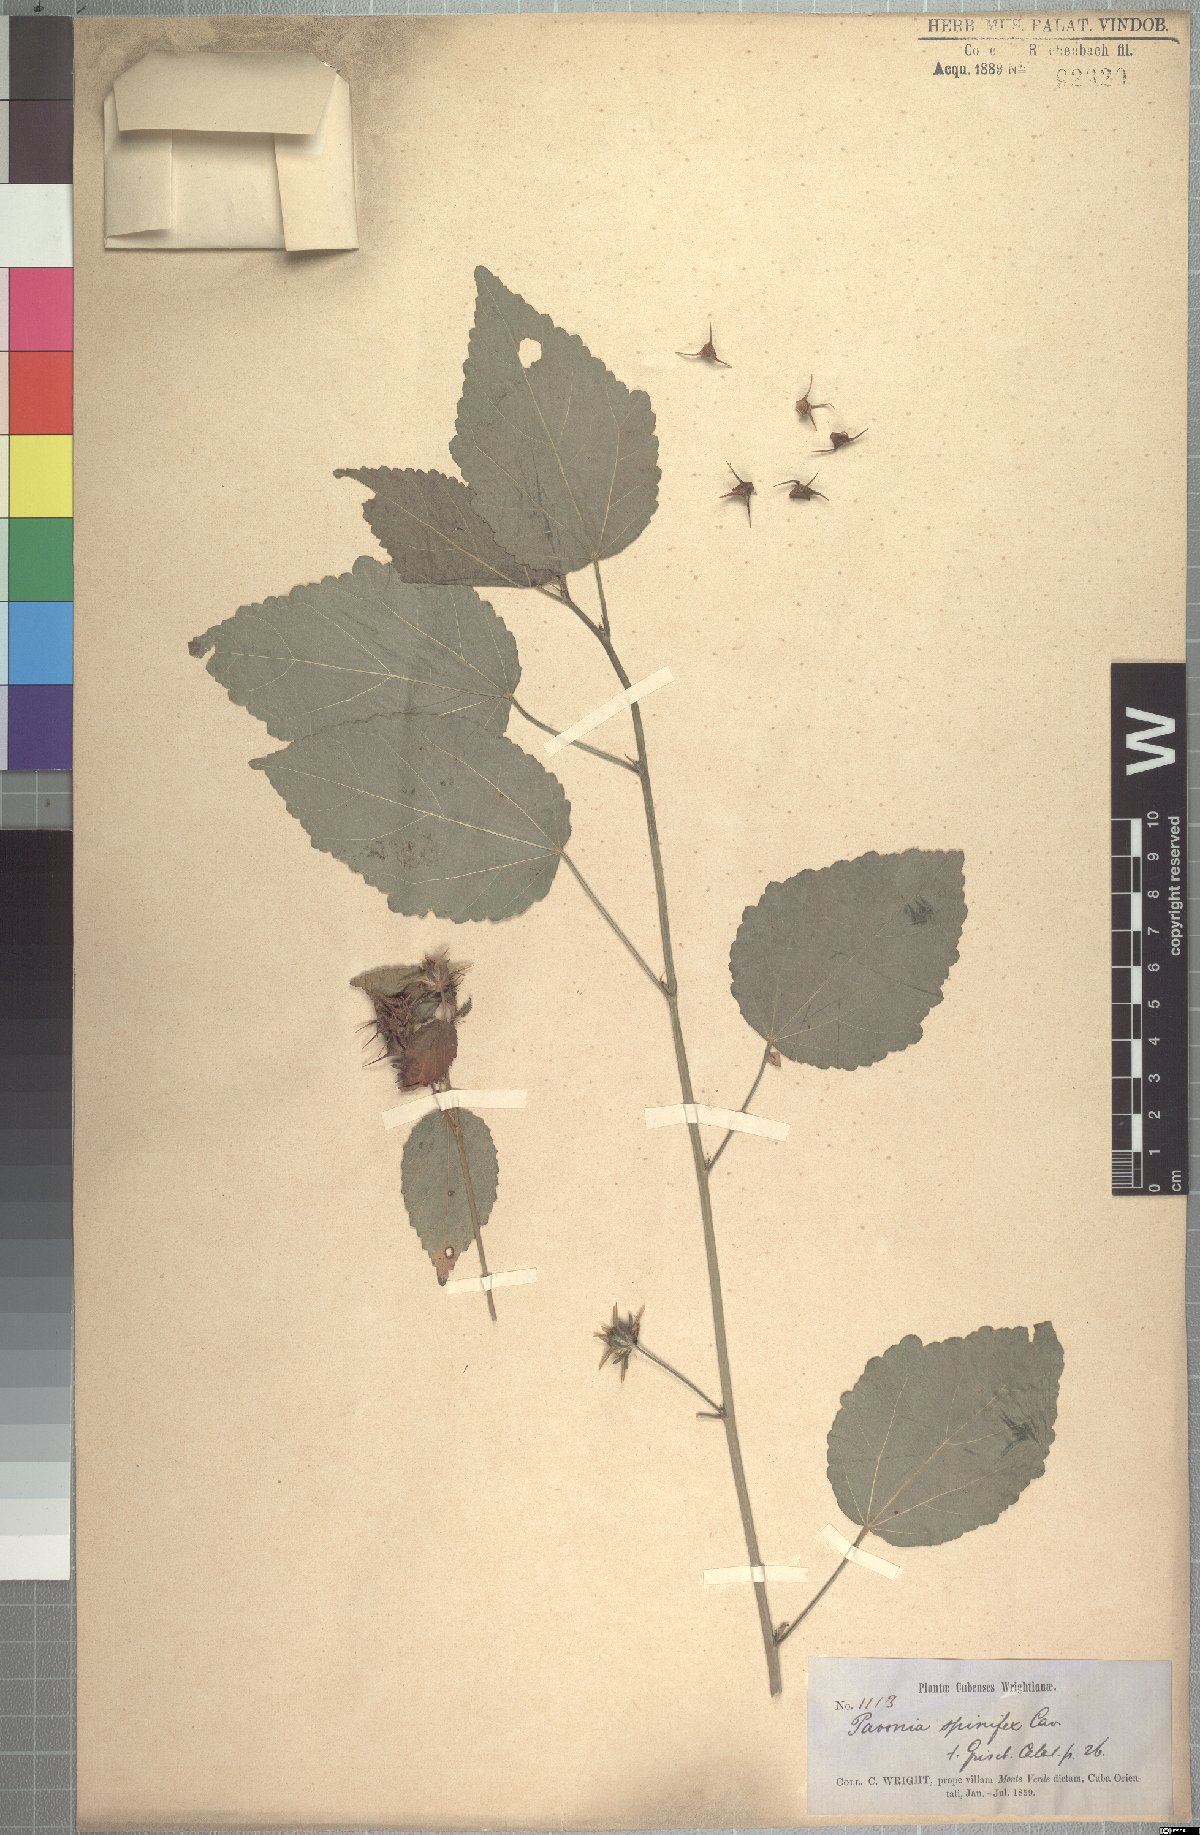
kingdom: Plantae
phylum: Tracheophyta
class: Magnoliopsida
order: Malvales
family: Malvaceae
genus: Pavonia
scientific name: Pavonia spinifex
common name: Ginger bush
